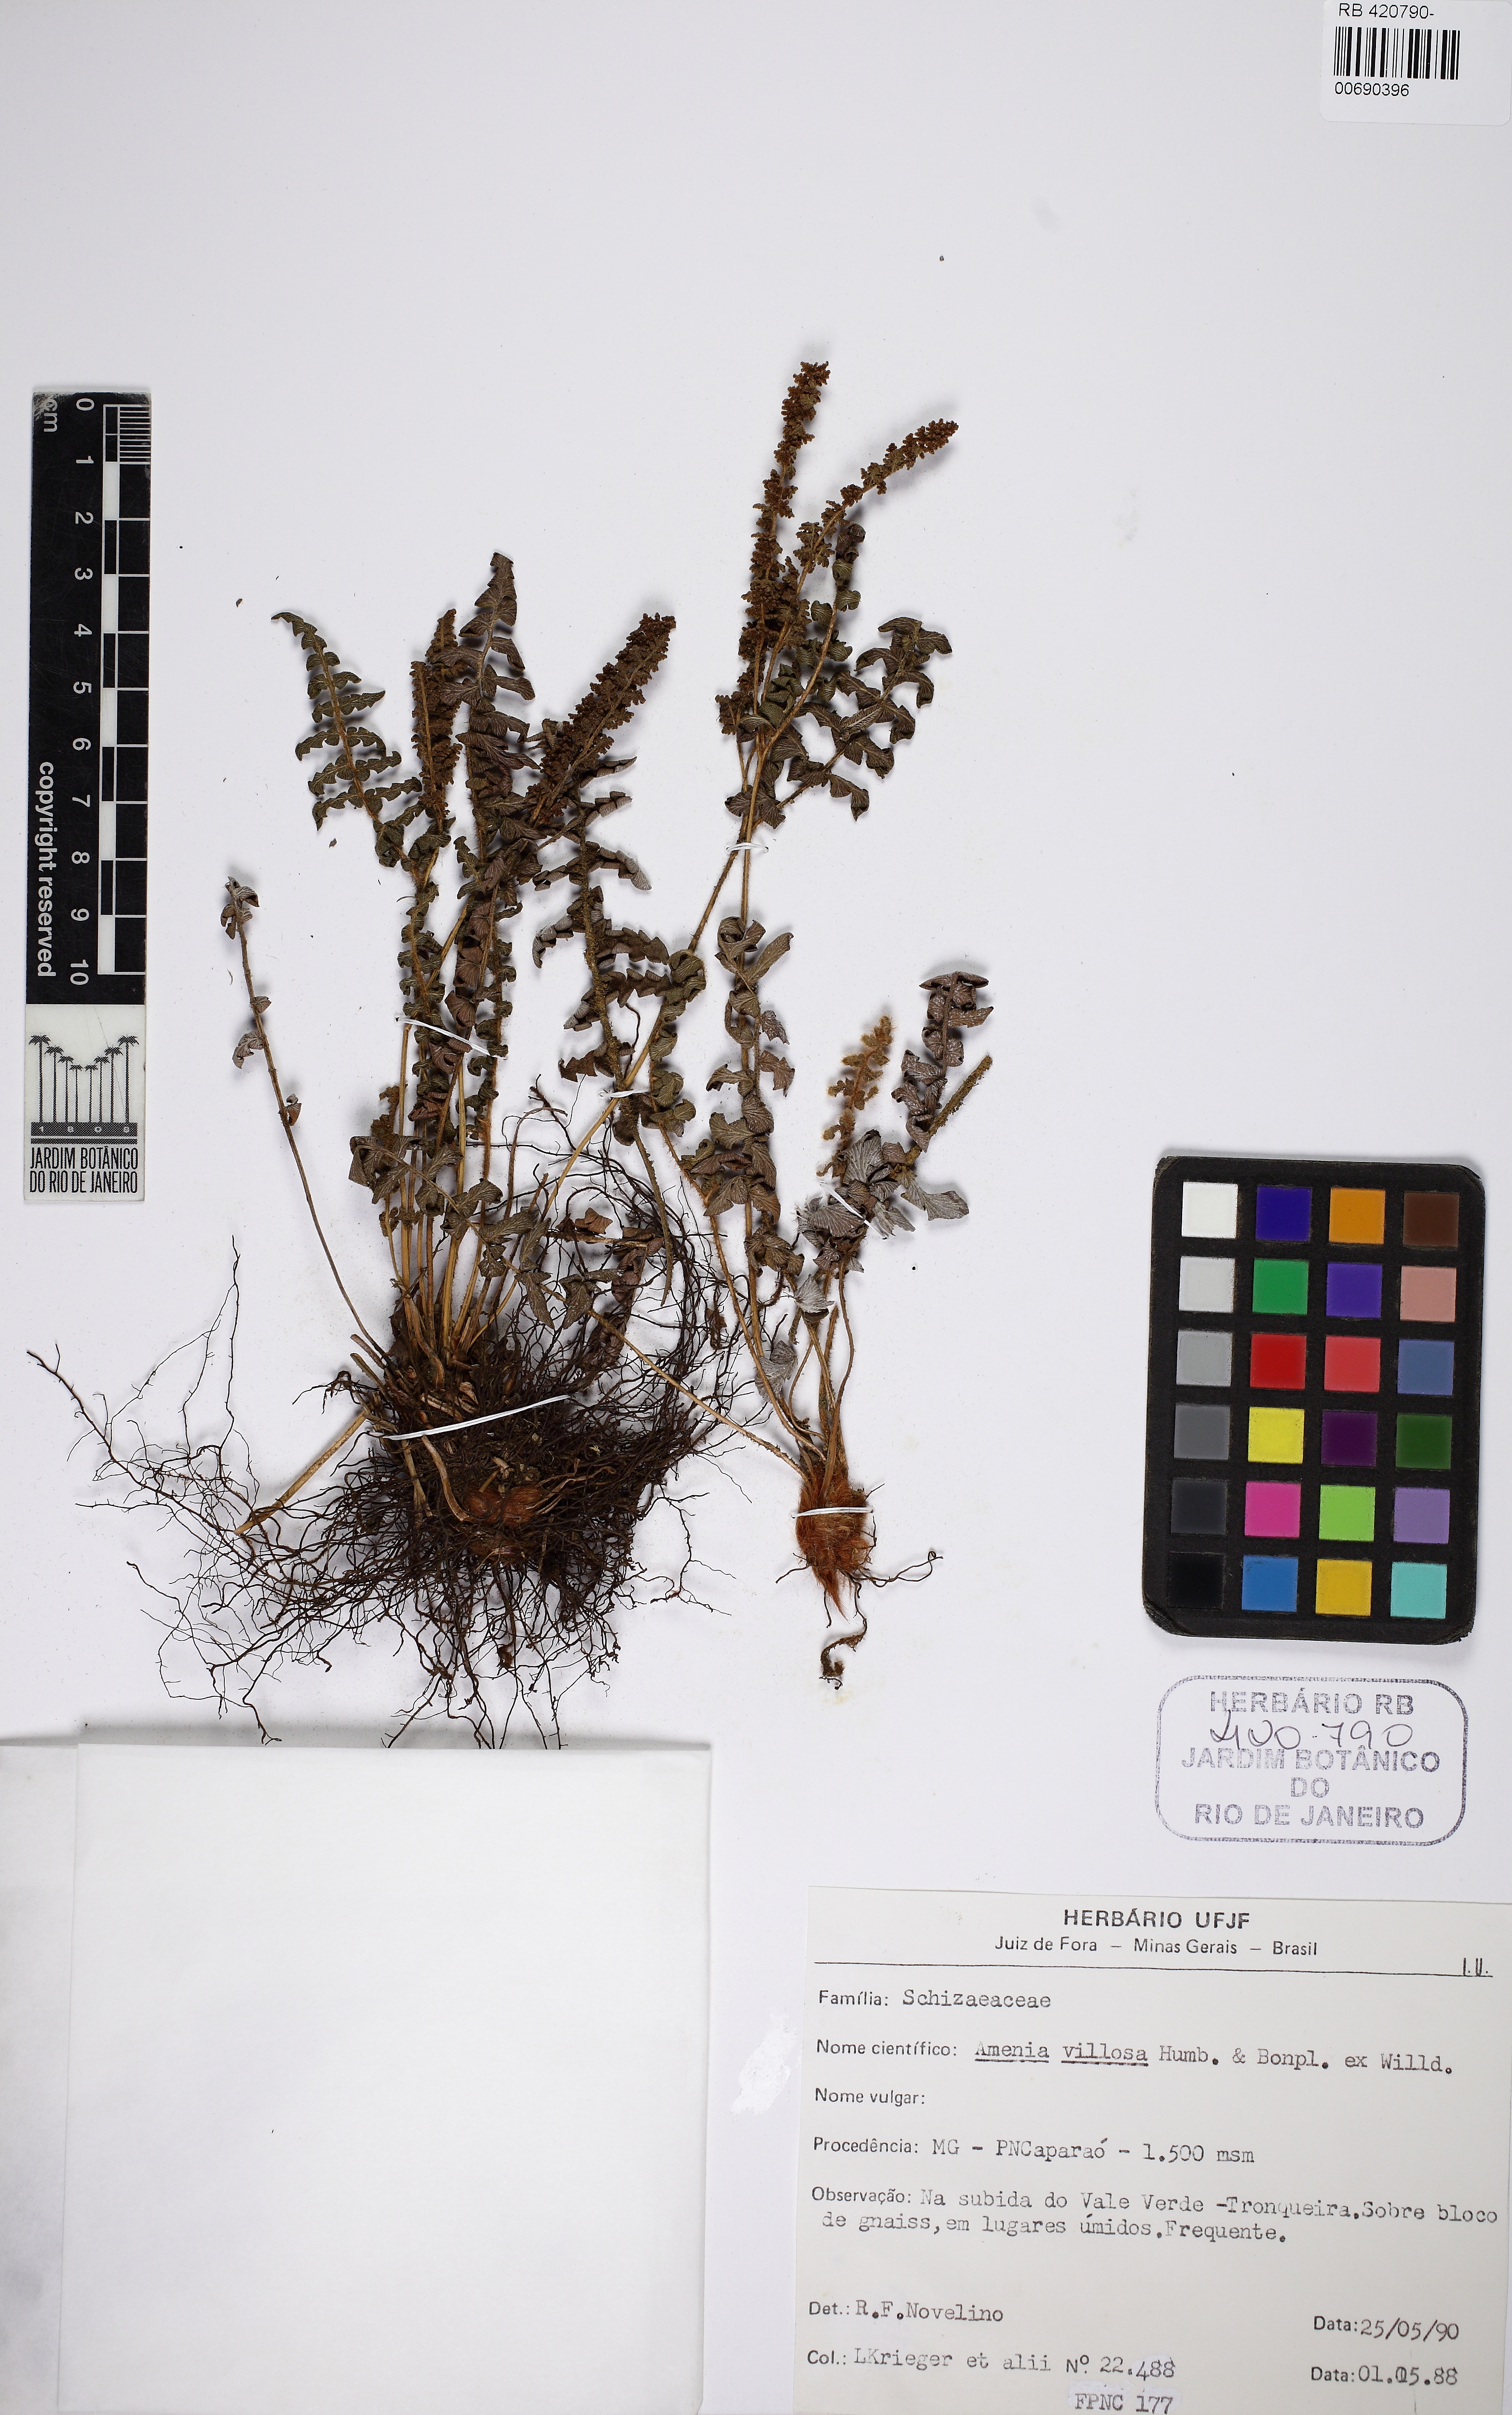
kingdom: Plantae
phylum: Tracheophyta
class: Polypodiopsida
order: Schizaeales
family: Anemiaceae
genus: Anemia
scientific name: Anemia villosa
